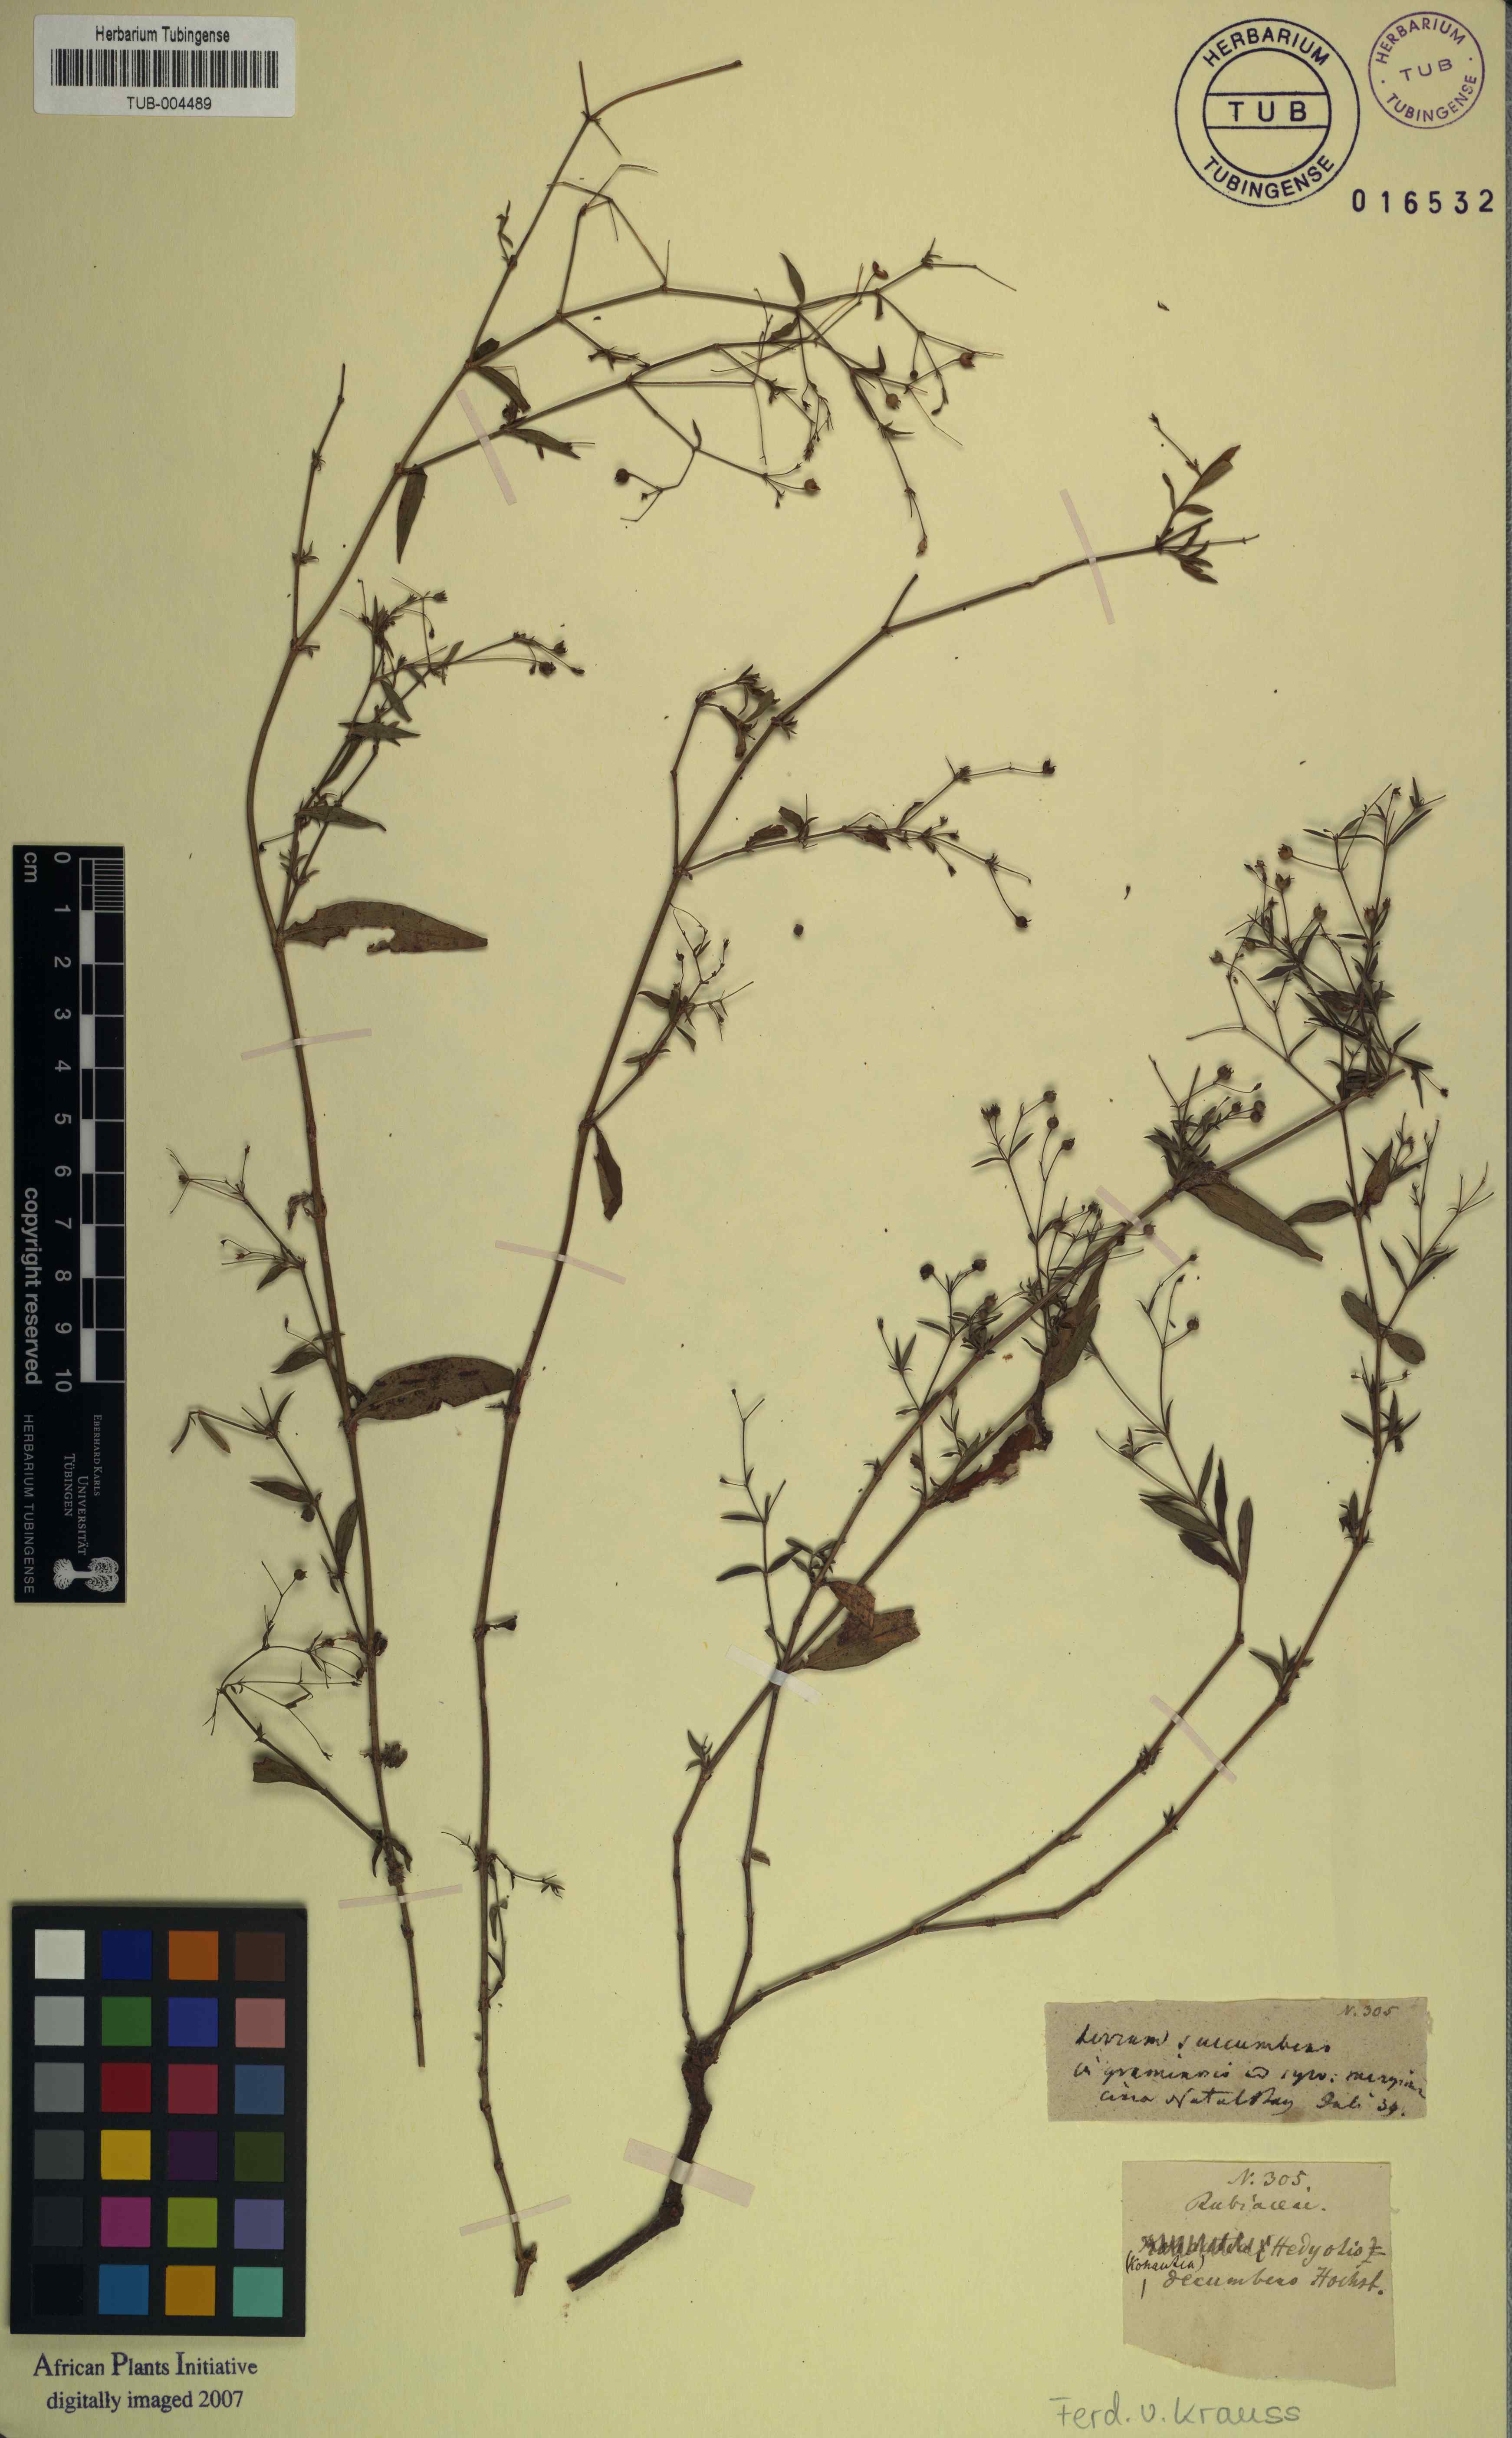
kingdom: Plantae
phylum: Tracheophyta
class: Magnoliopsida
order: Gentianales
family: Rubiaceae
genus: Oldenlandia
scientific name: Oldenlandia affinis
